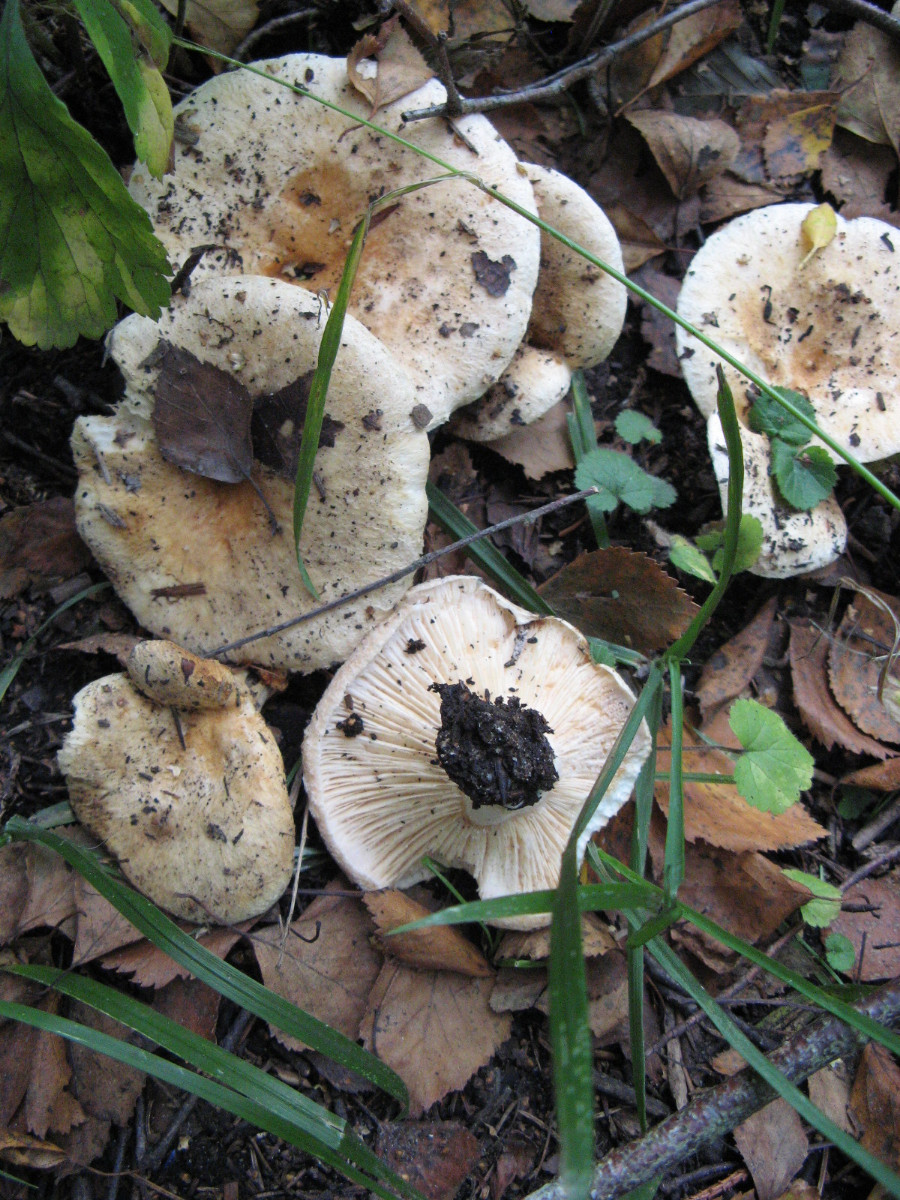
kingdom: Fungi
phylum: Basidiomycota
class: Agaricomycetes
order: Russulales
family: Russulaceae
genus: Lactarius
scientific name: Lactarius pubescens
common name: dunet mælkehat
